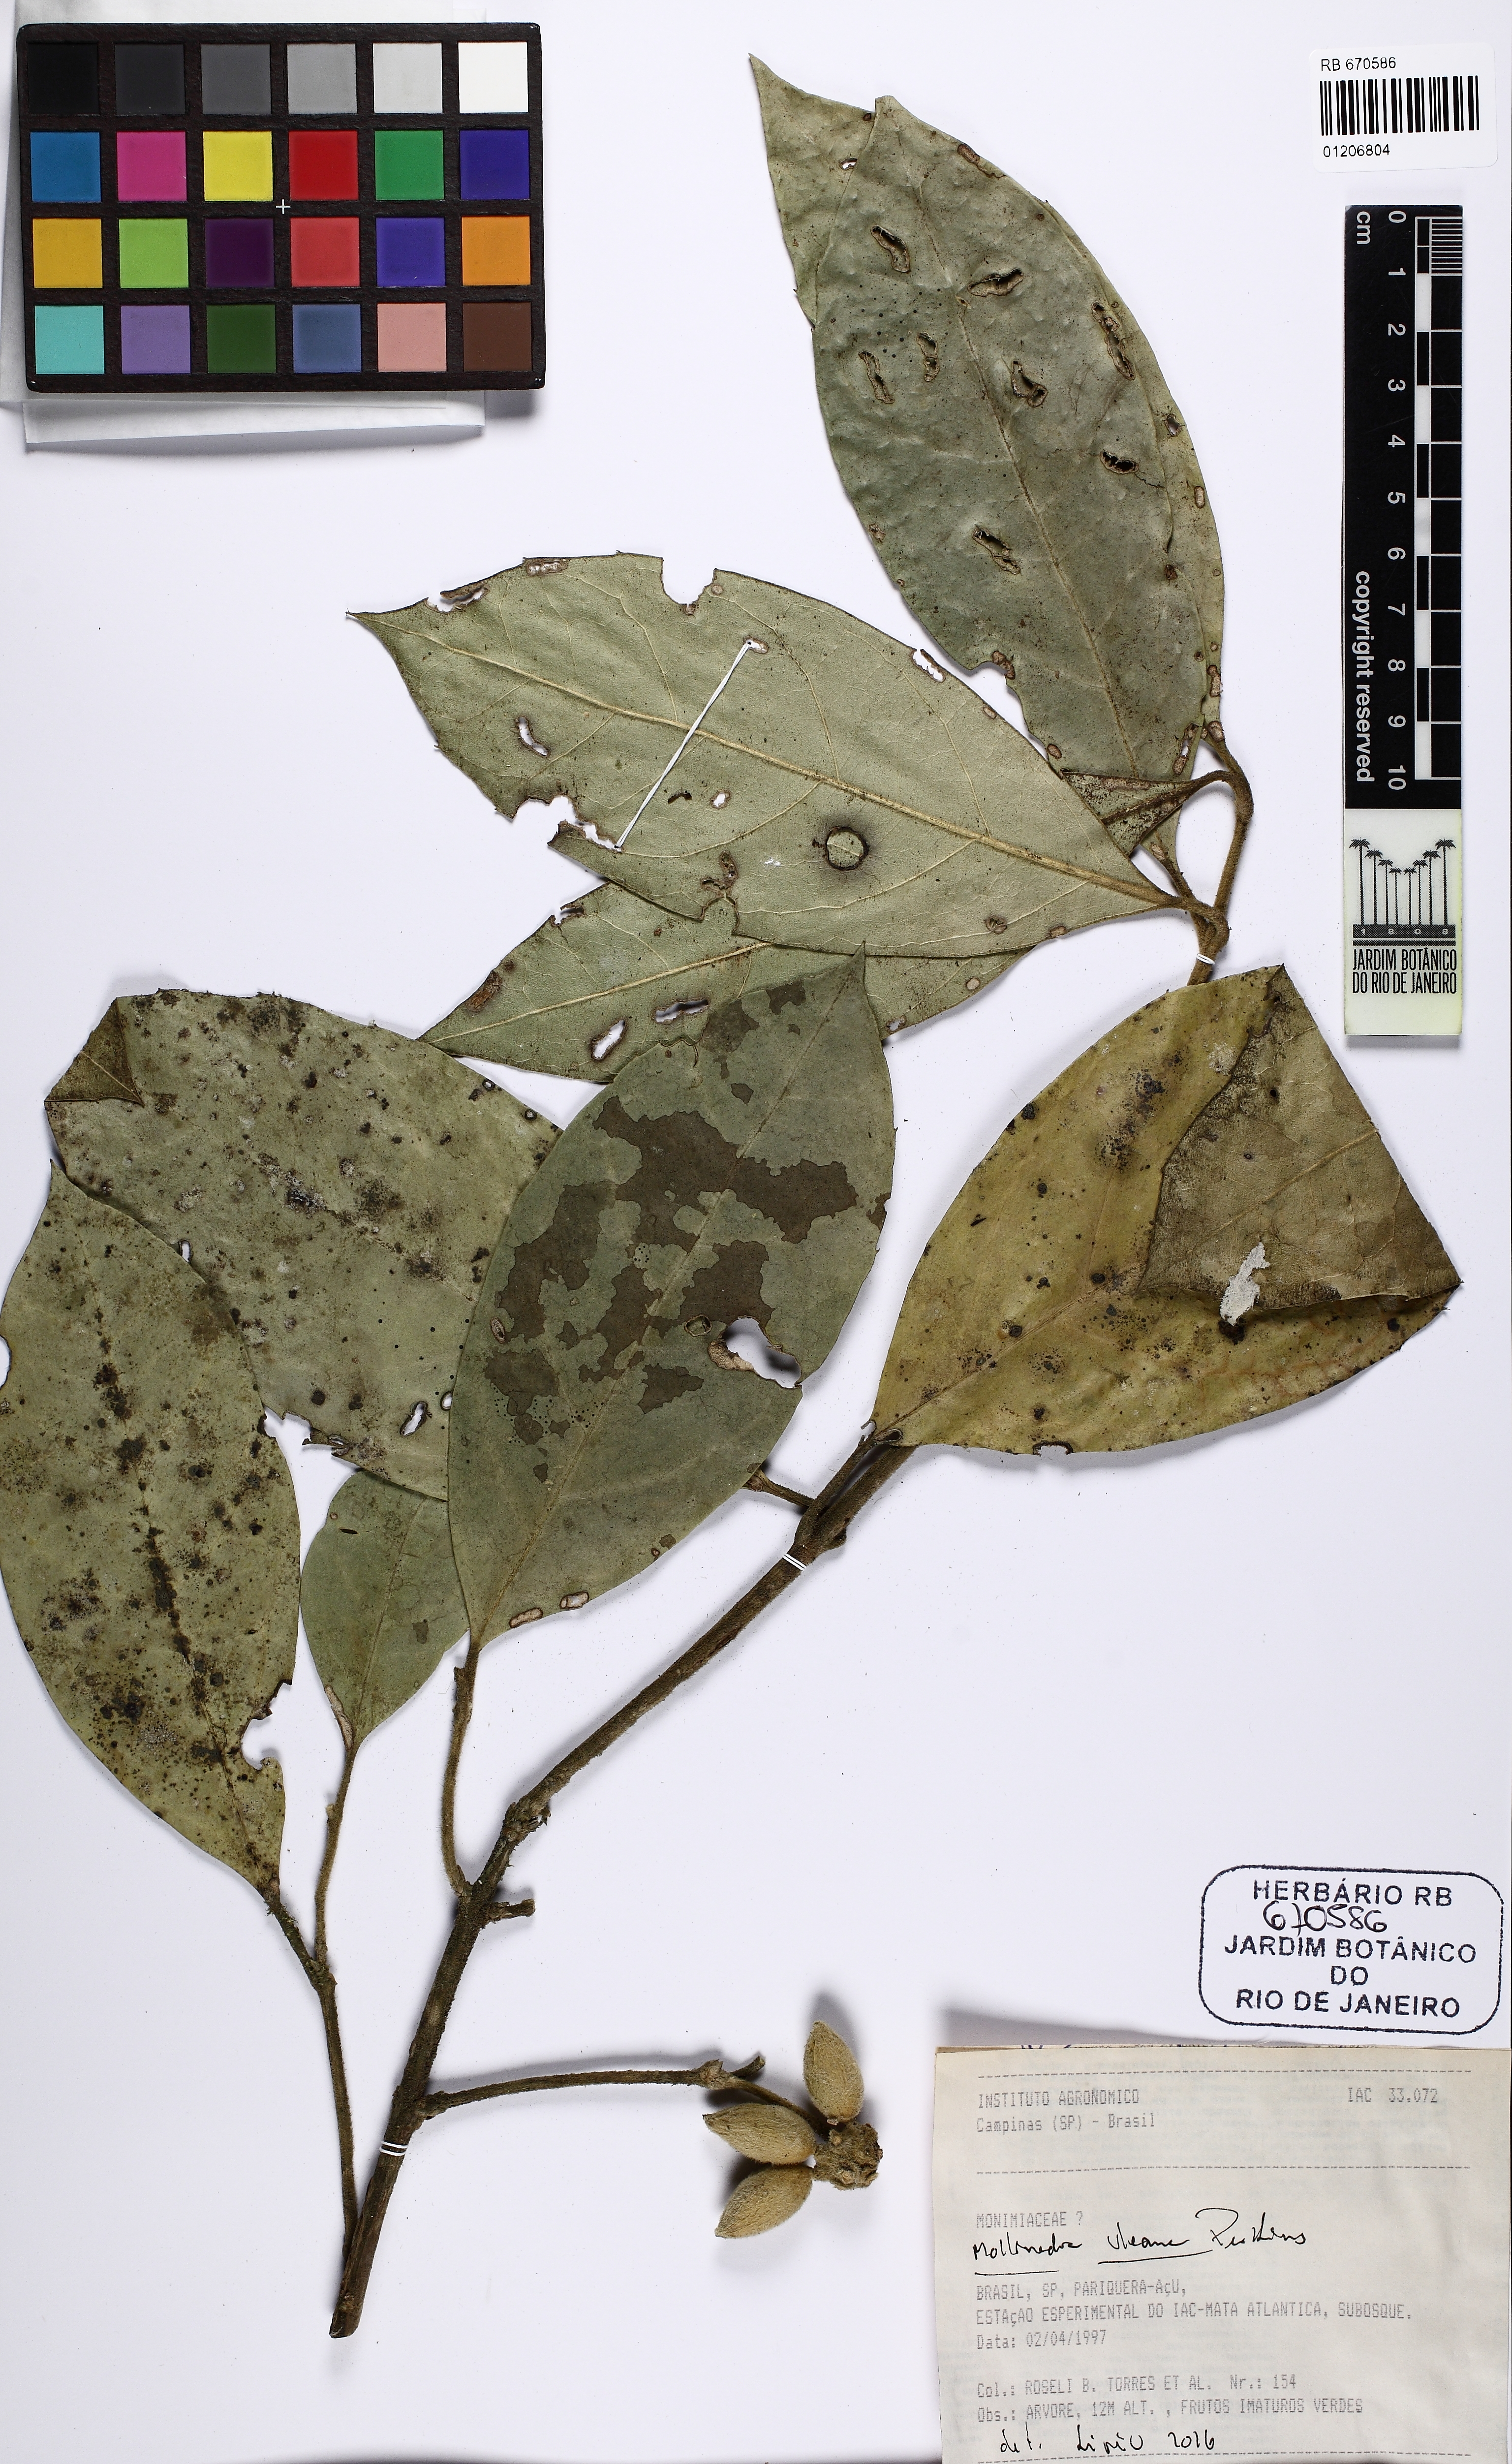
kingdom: Plantae
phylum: Tracheophyta
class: Magnoliopsida
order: Laurales
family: Monimiaceae
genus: Mollinedia
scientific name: Mollinedia uleana
